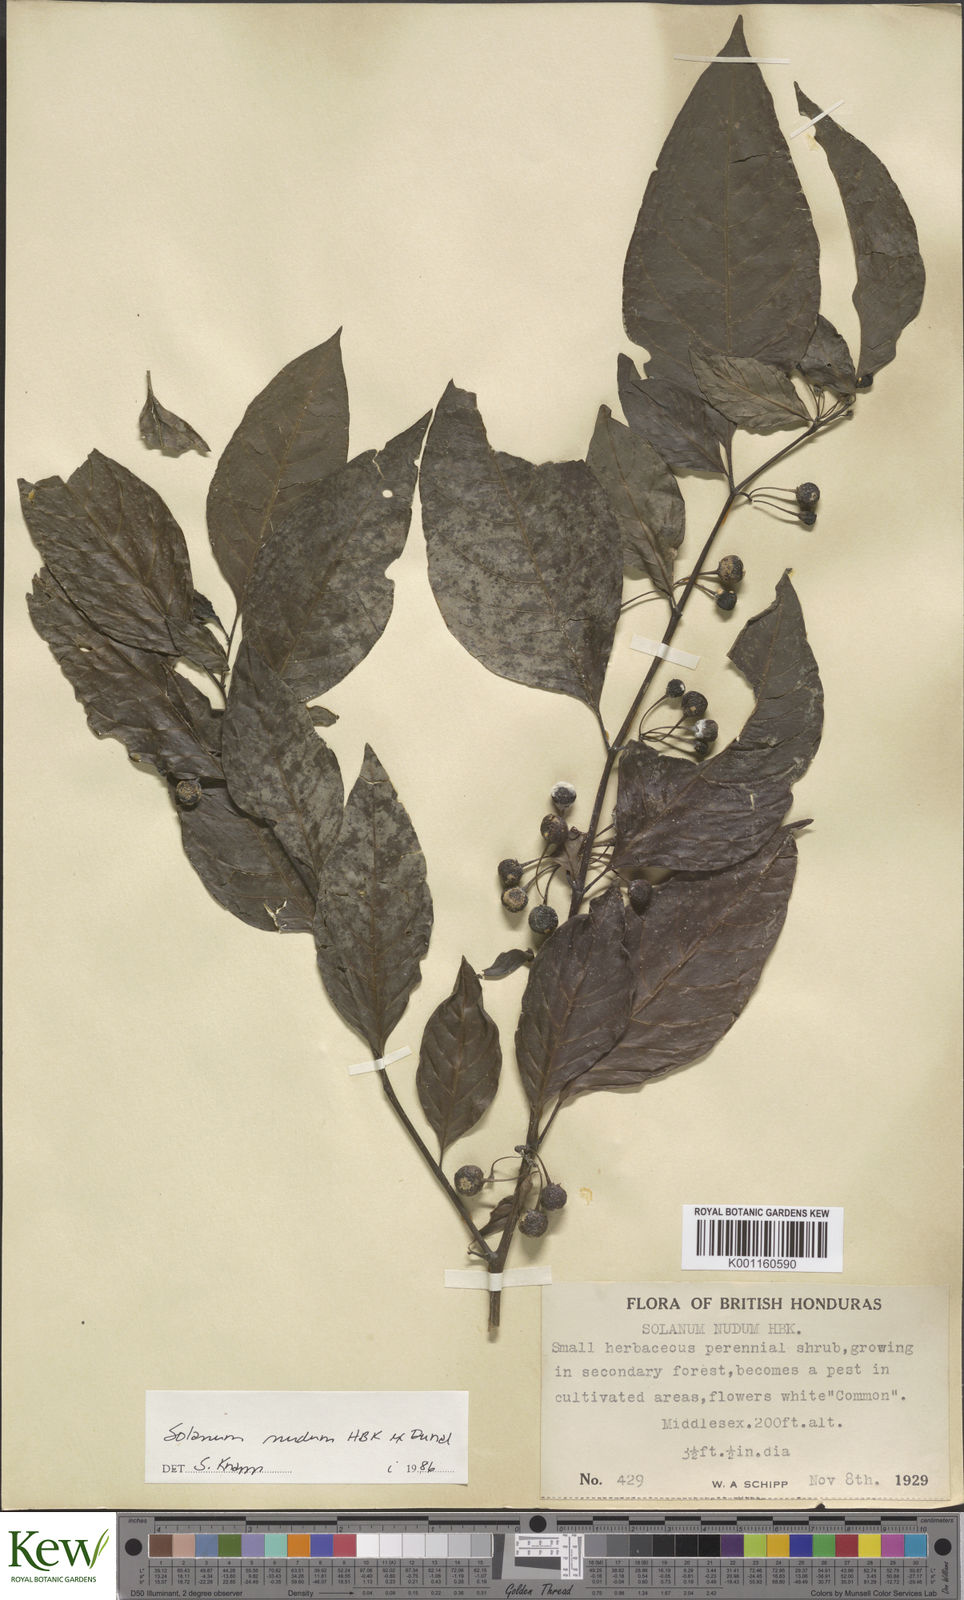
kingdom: Plantae
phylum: Tracheophyta
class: Magnoliopsida
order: Solanales
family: Solanaceae
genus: Solanum
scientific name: Solanum nudum
